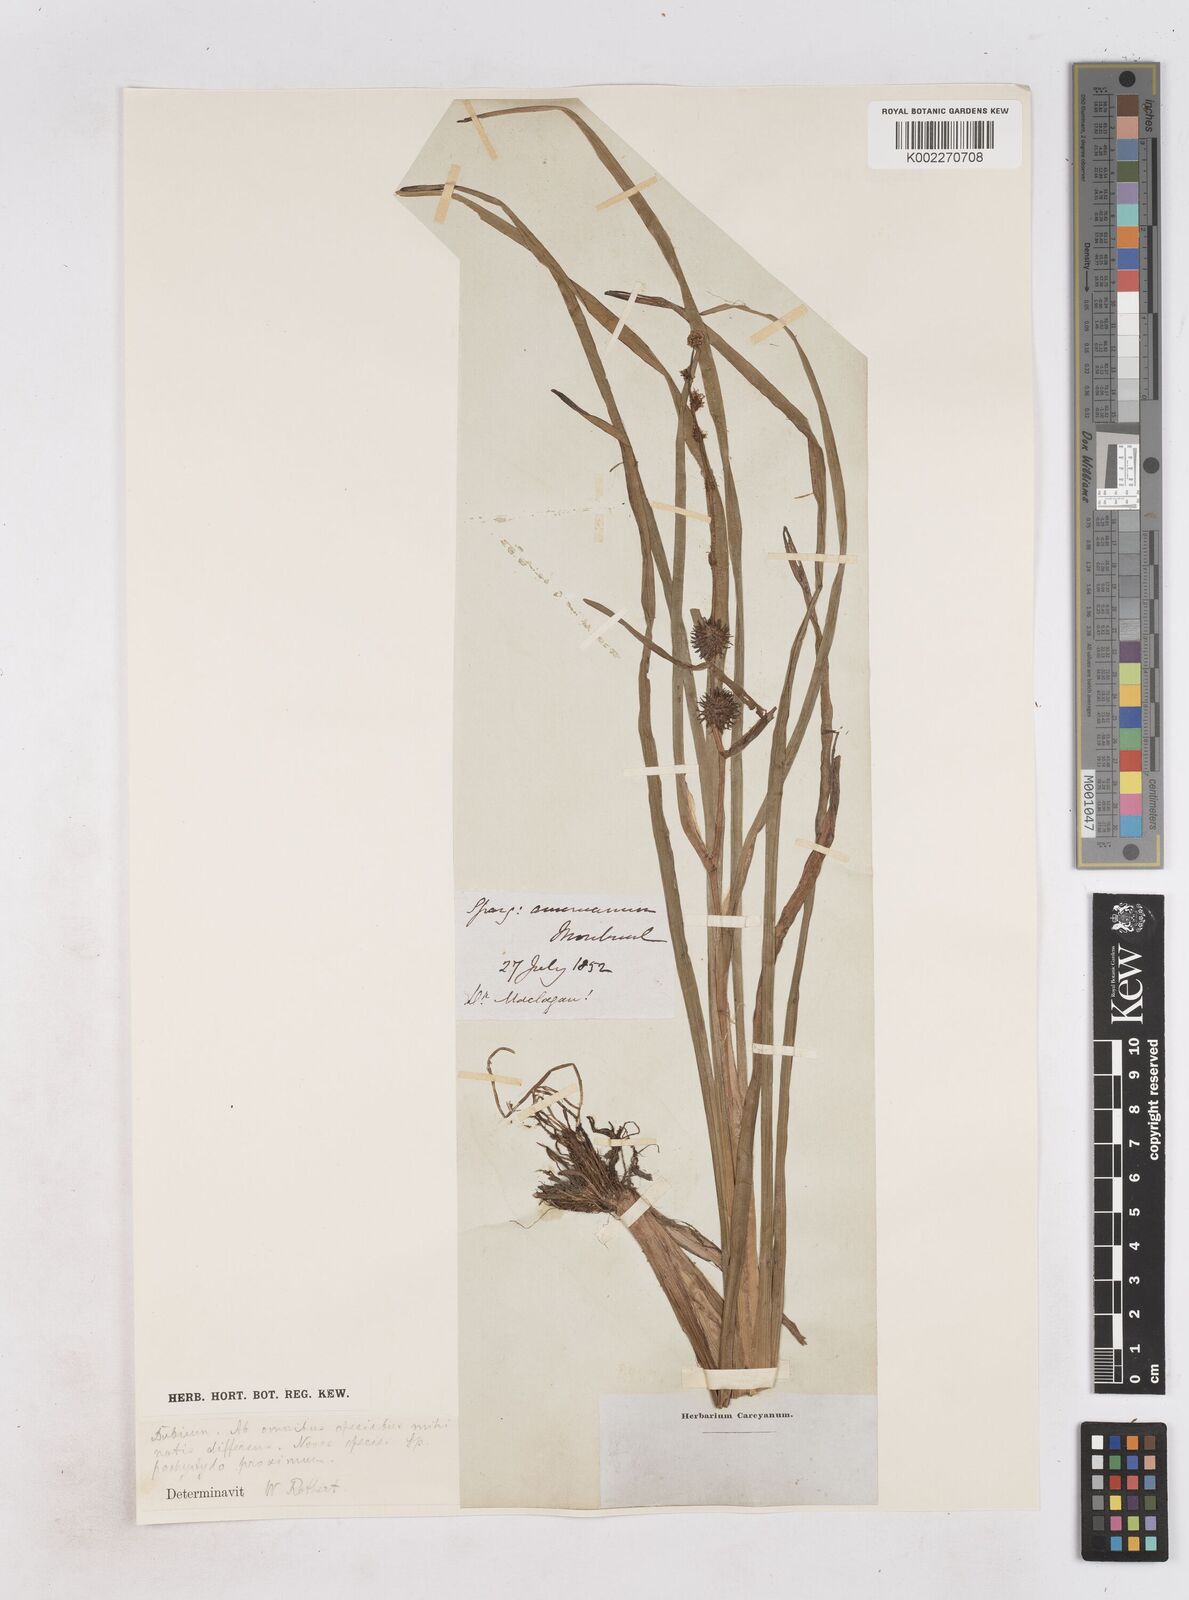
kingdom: Plantae
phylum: Tracheophyta
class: Liliopsida
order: Poales
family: Typhaceae
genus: Sparganium
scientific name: Sparganium
